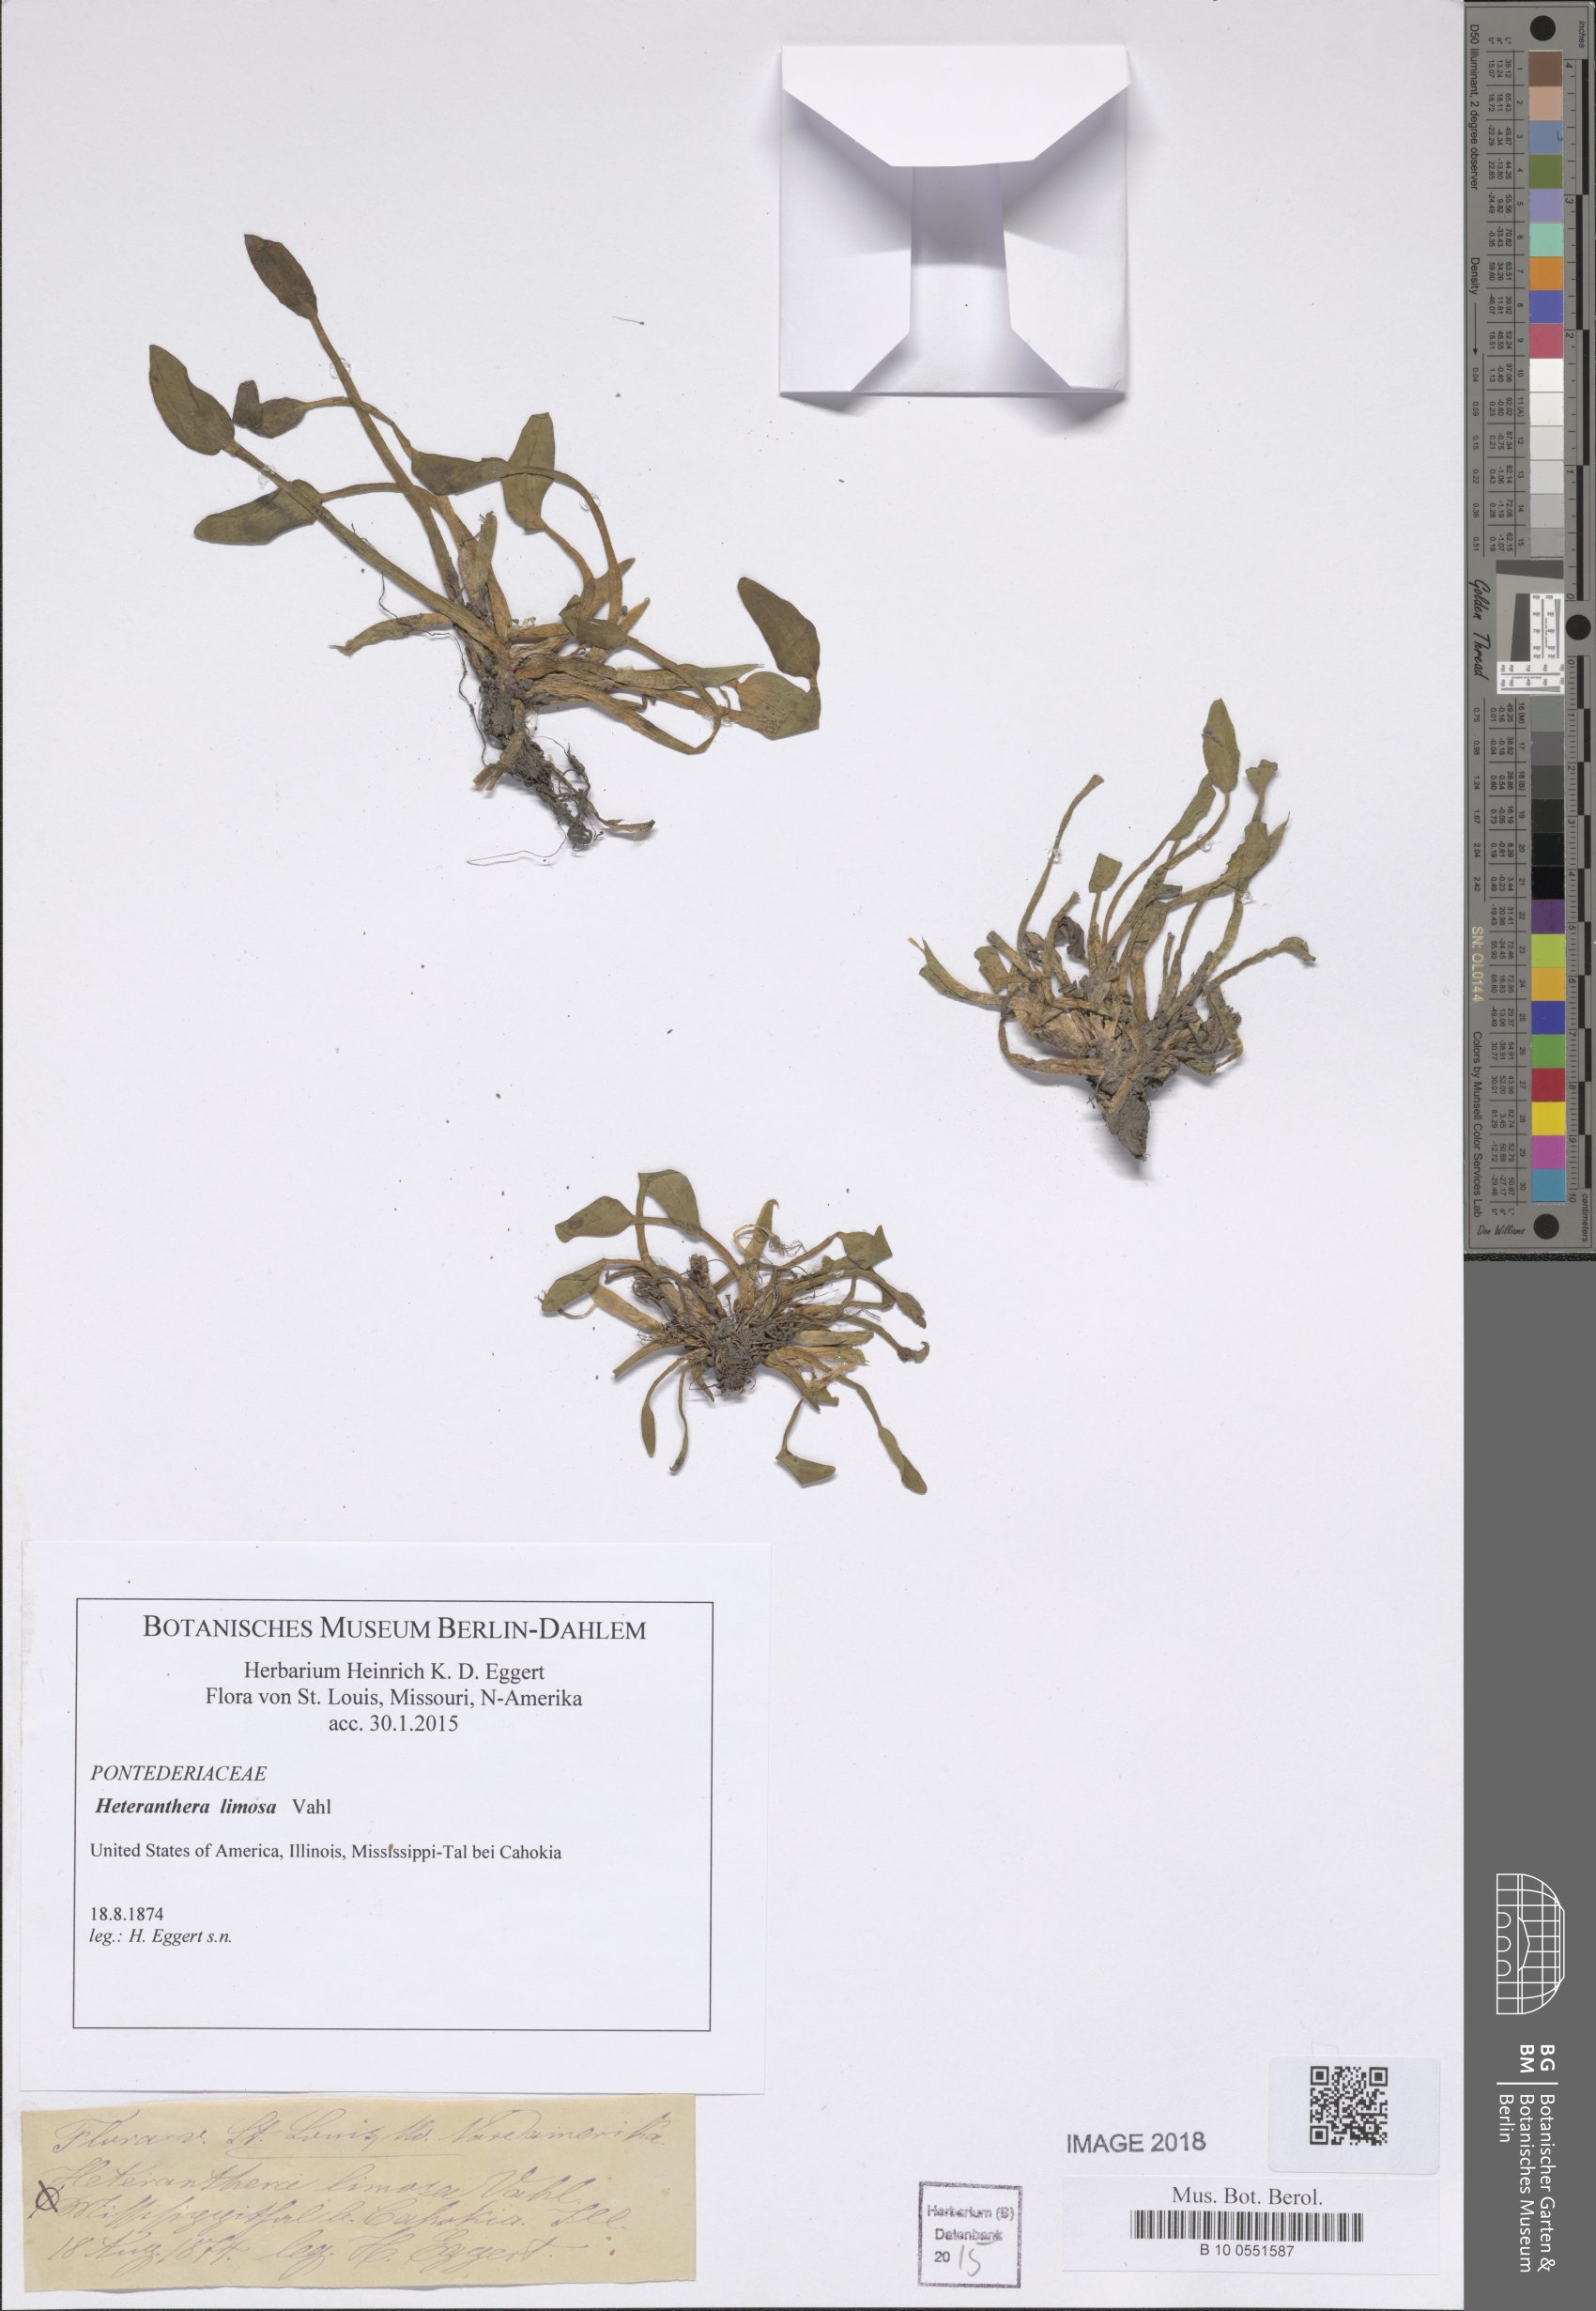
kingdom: Plantae
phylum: Tracheophyta
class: Liliopsida
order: Commelinales
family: Pontederiaceae
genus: Heteranthera
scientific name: Heteranthera limosa
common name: Blue mud-plantain
